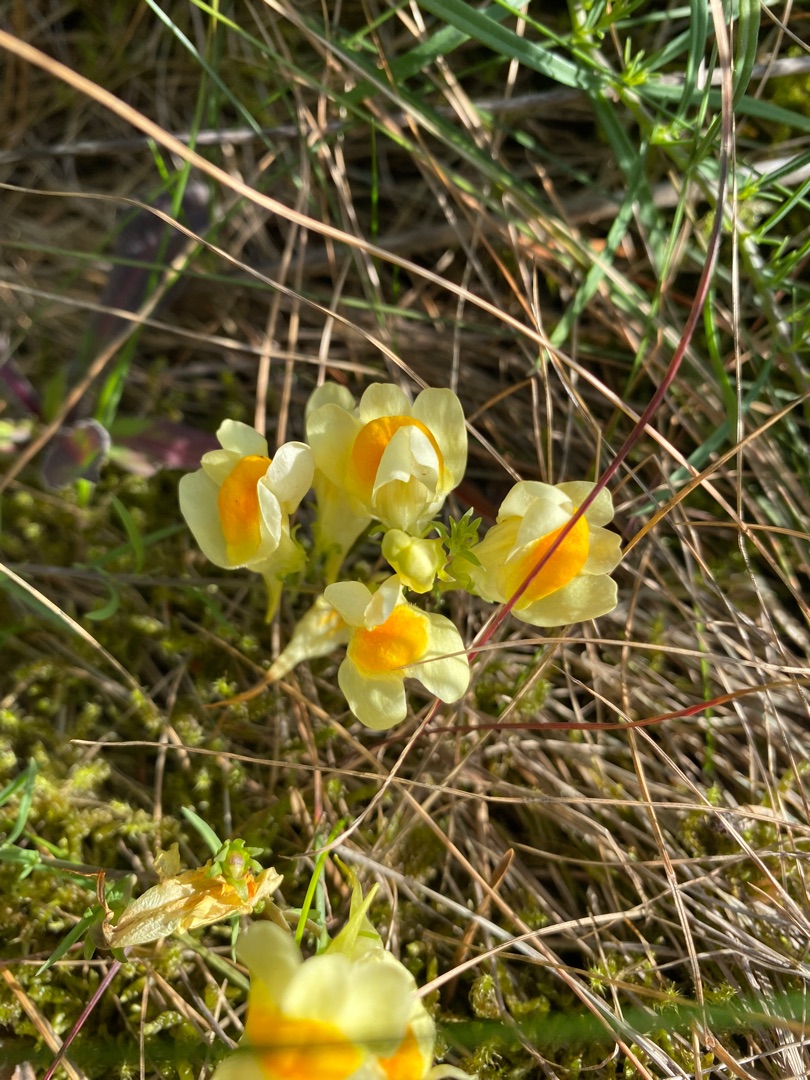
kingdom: Plantae
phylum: Tracheophyta
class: Magnoliopsida
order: Lamiales
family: Plantaginaceae
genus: Linaria
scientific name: Linaria vulgaris
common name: Almindelig torskemund
